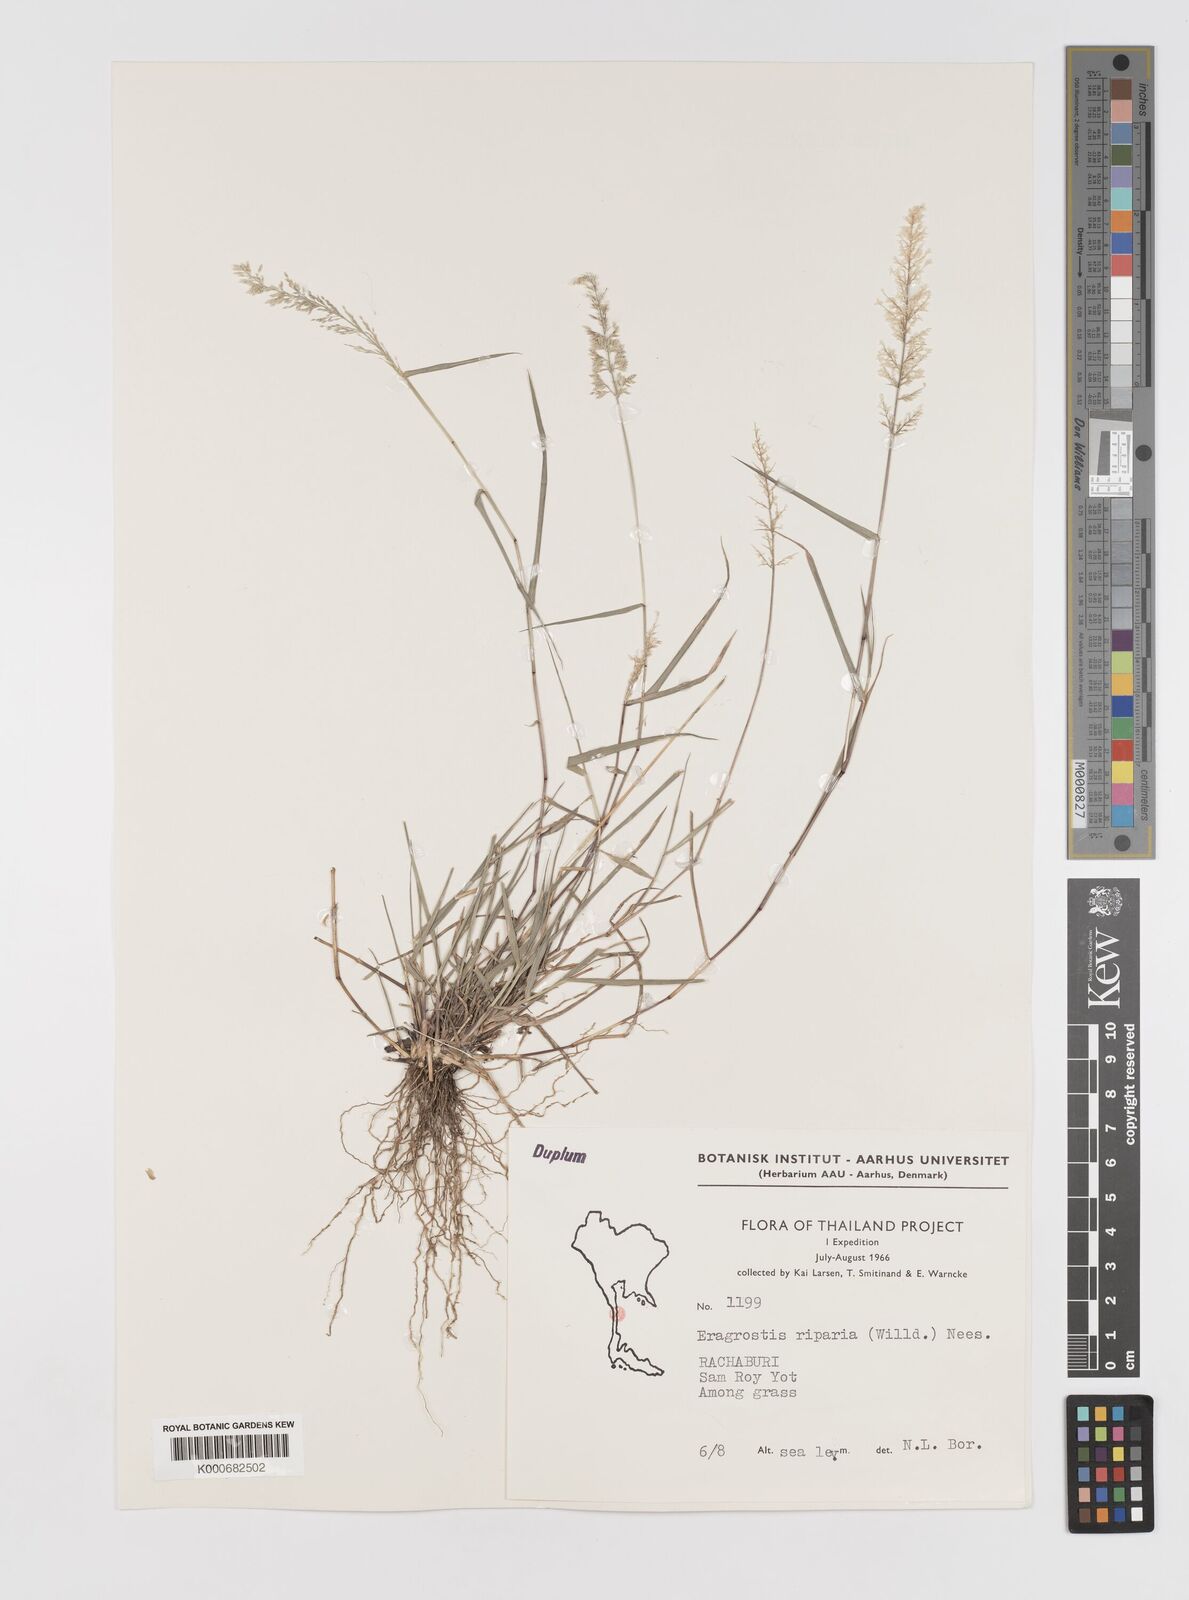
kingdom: Plantae
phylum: Tracheophyta
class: Liliopsida
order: Poales
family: Poaceae
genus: Eragrostis
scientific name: Eragrostis riparia
